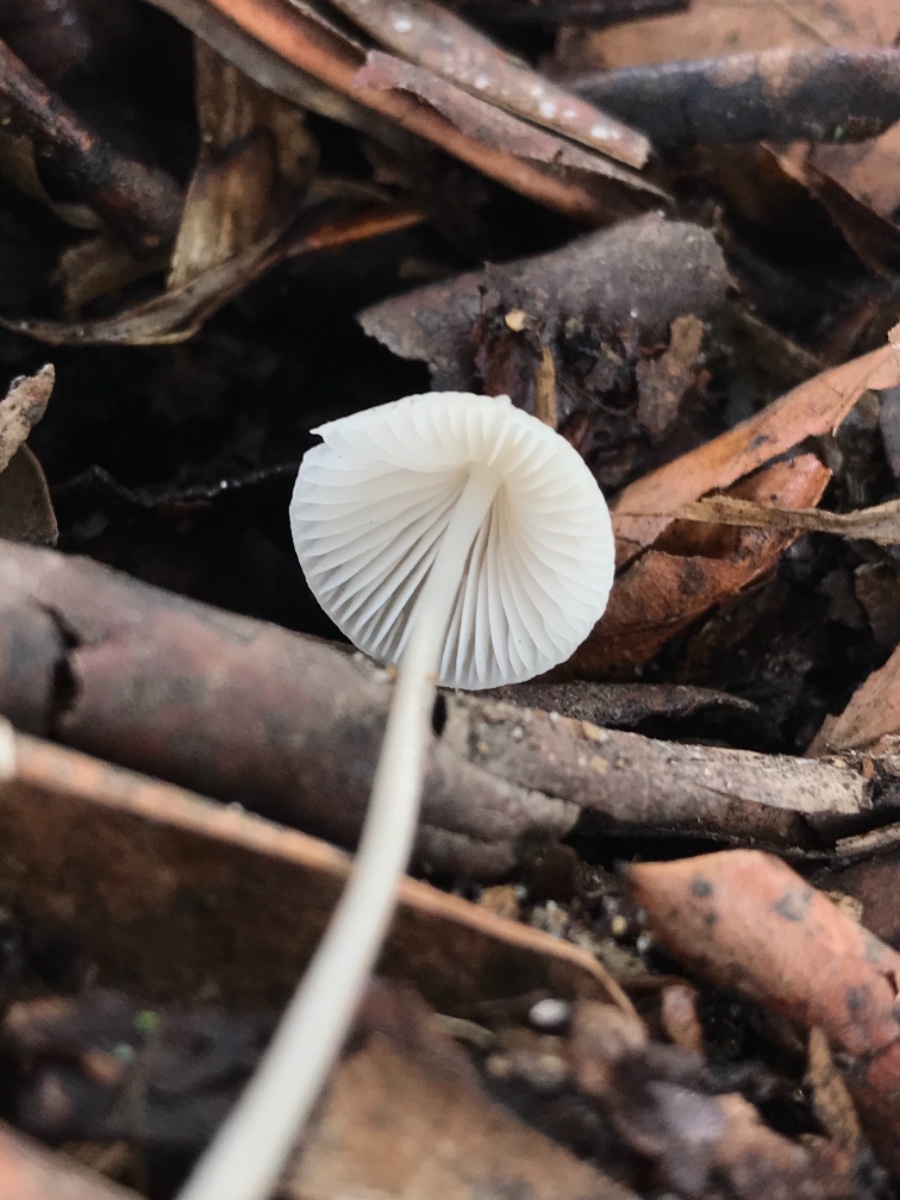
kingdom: Fungi
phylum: Basidiomycota
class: Agaricomycetes
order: Agaricales
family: Mycenaceae
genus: Mycena
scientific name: Mycena
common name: huesvamp
